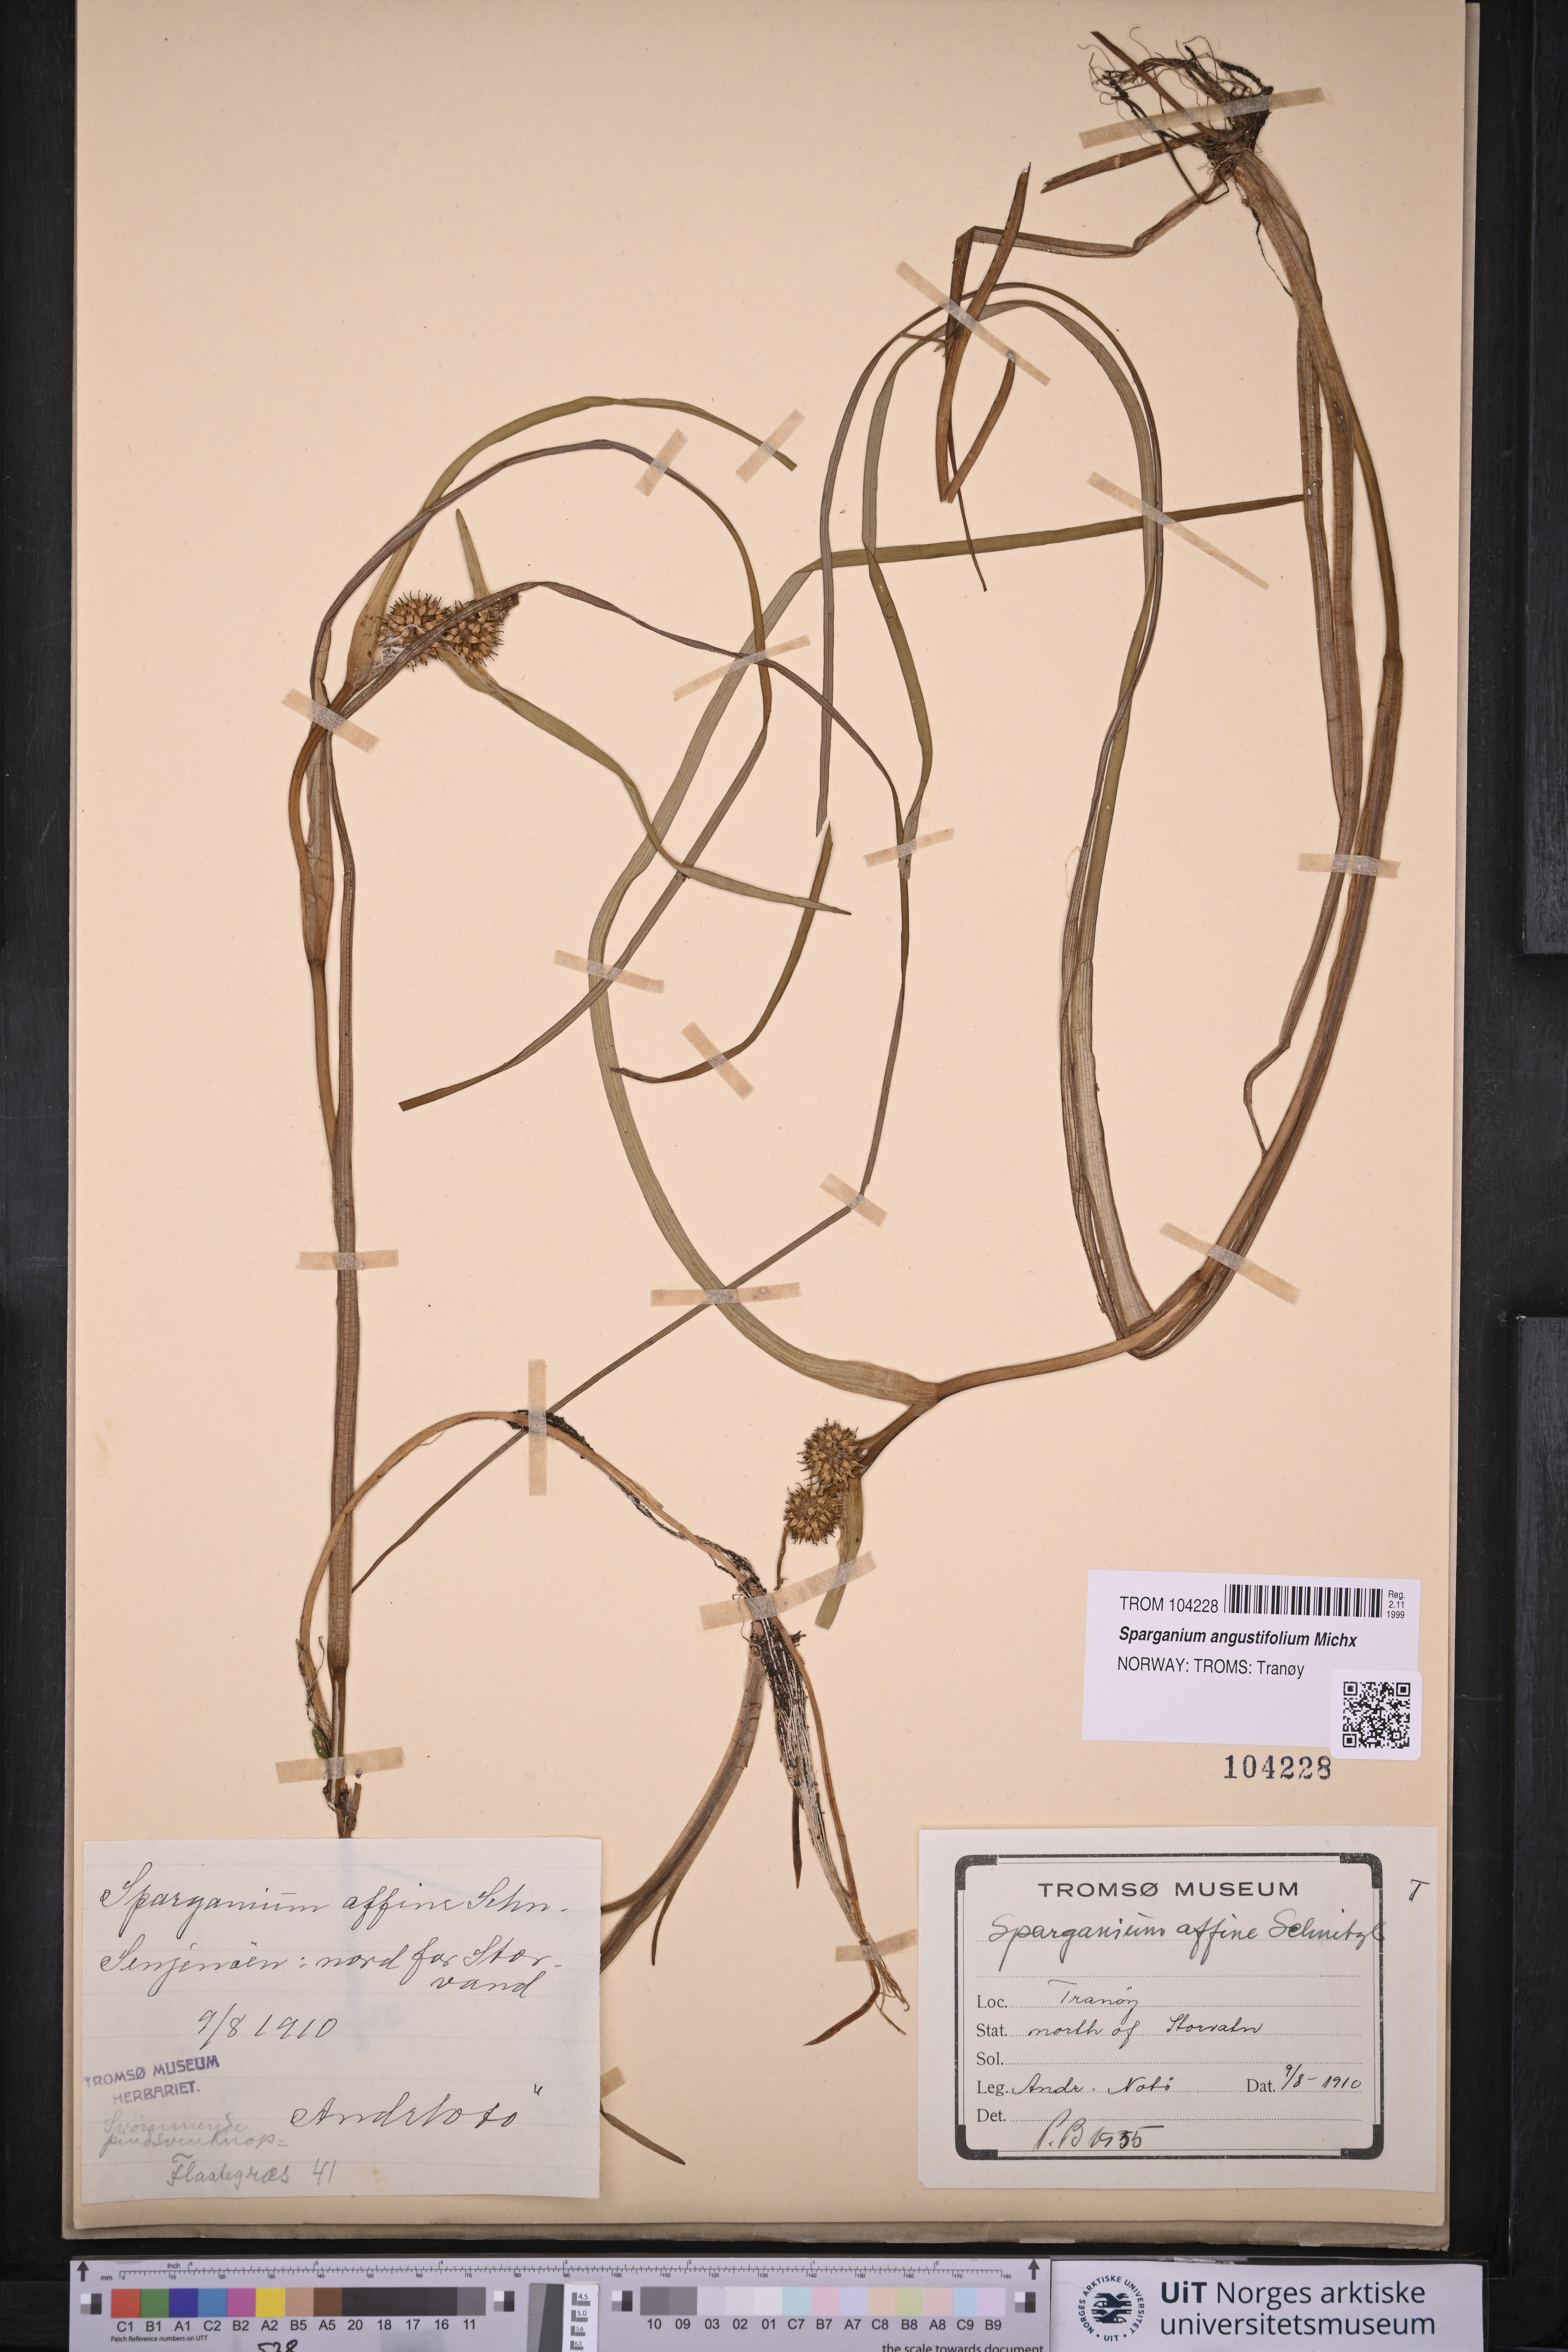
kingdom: Plantae
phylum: Tracheophyta
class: Liliopsida
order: Poales
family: Typhaceae
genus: Sparganium
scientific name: Sparganium angustifolium
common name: Floating bur-reed
